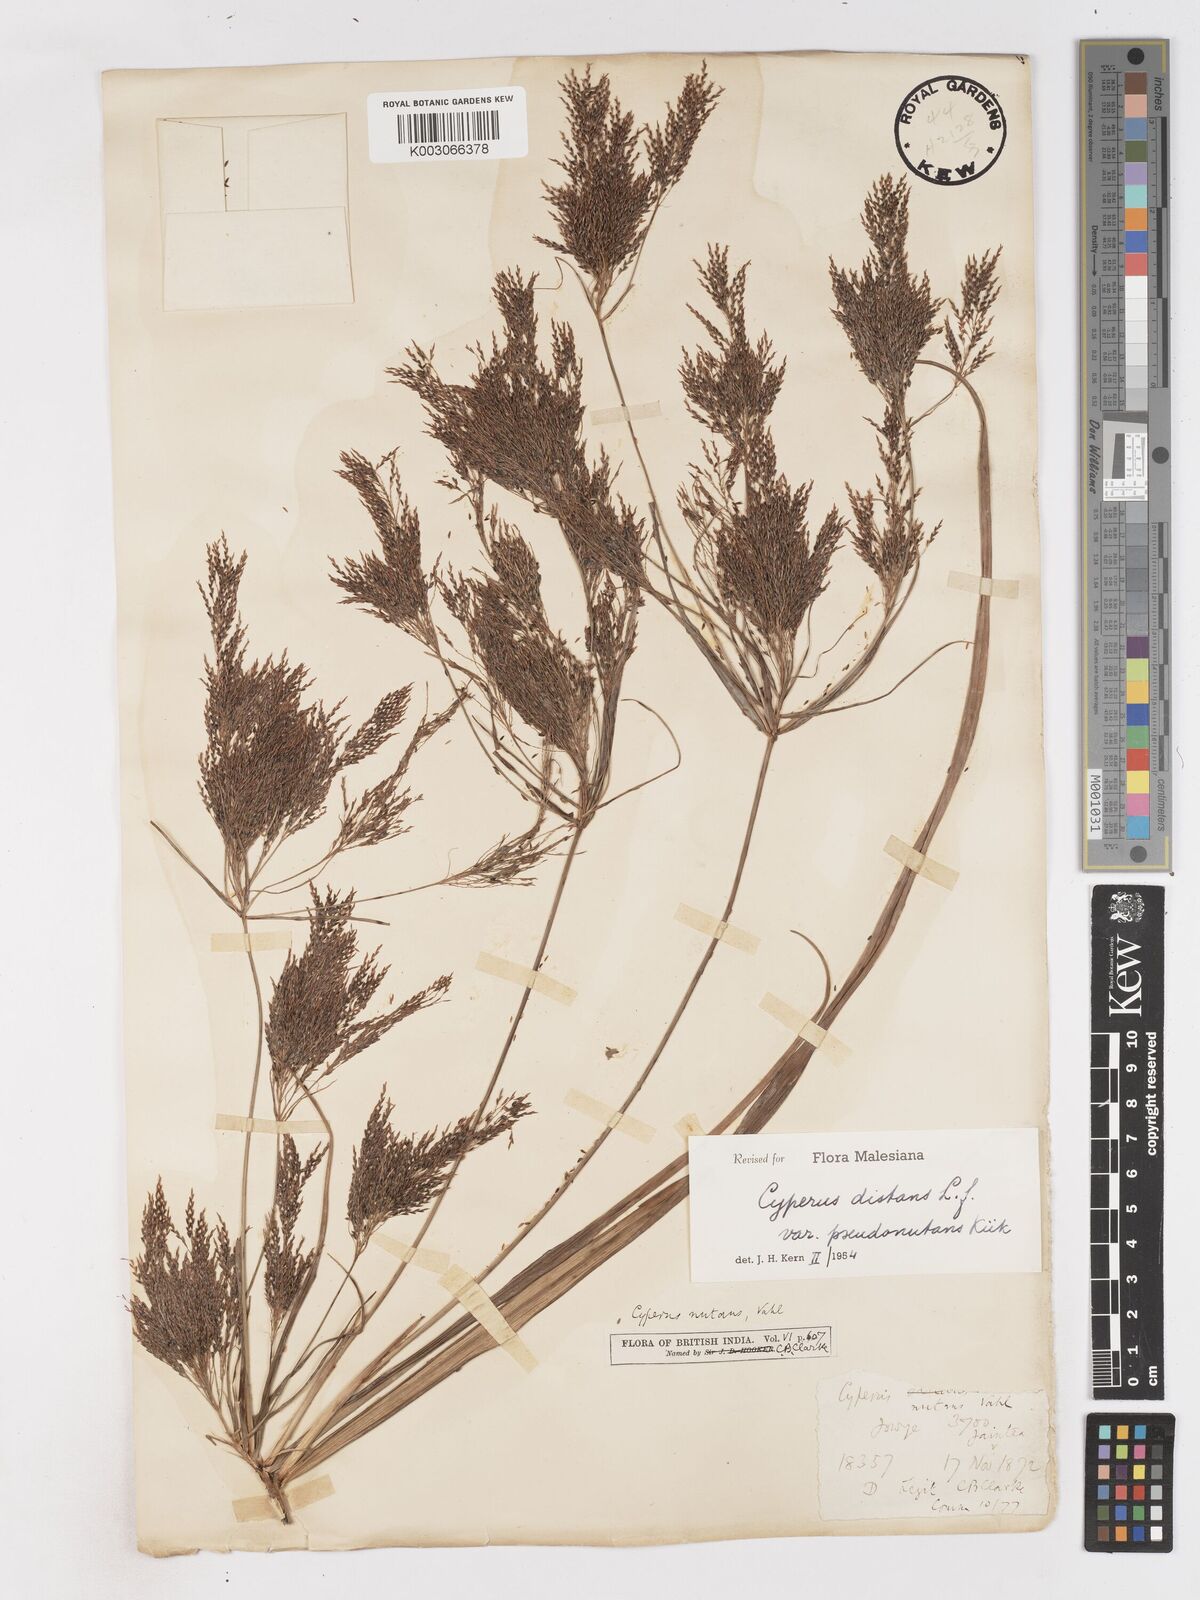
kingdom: Plantae
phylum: Tracheophyta
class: Liliopsida
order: Poales
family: Cyperaceae
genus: Cyperus
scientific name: Cyperus distans
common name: Slender cyperus
